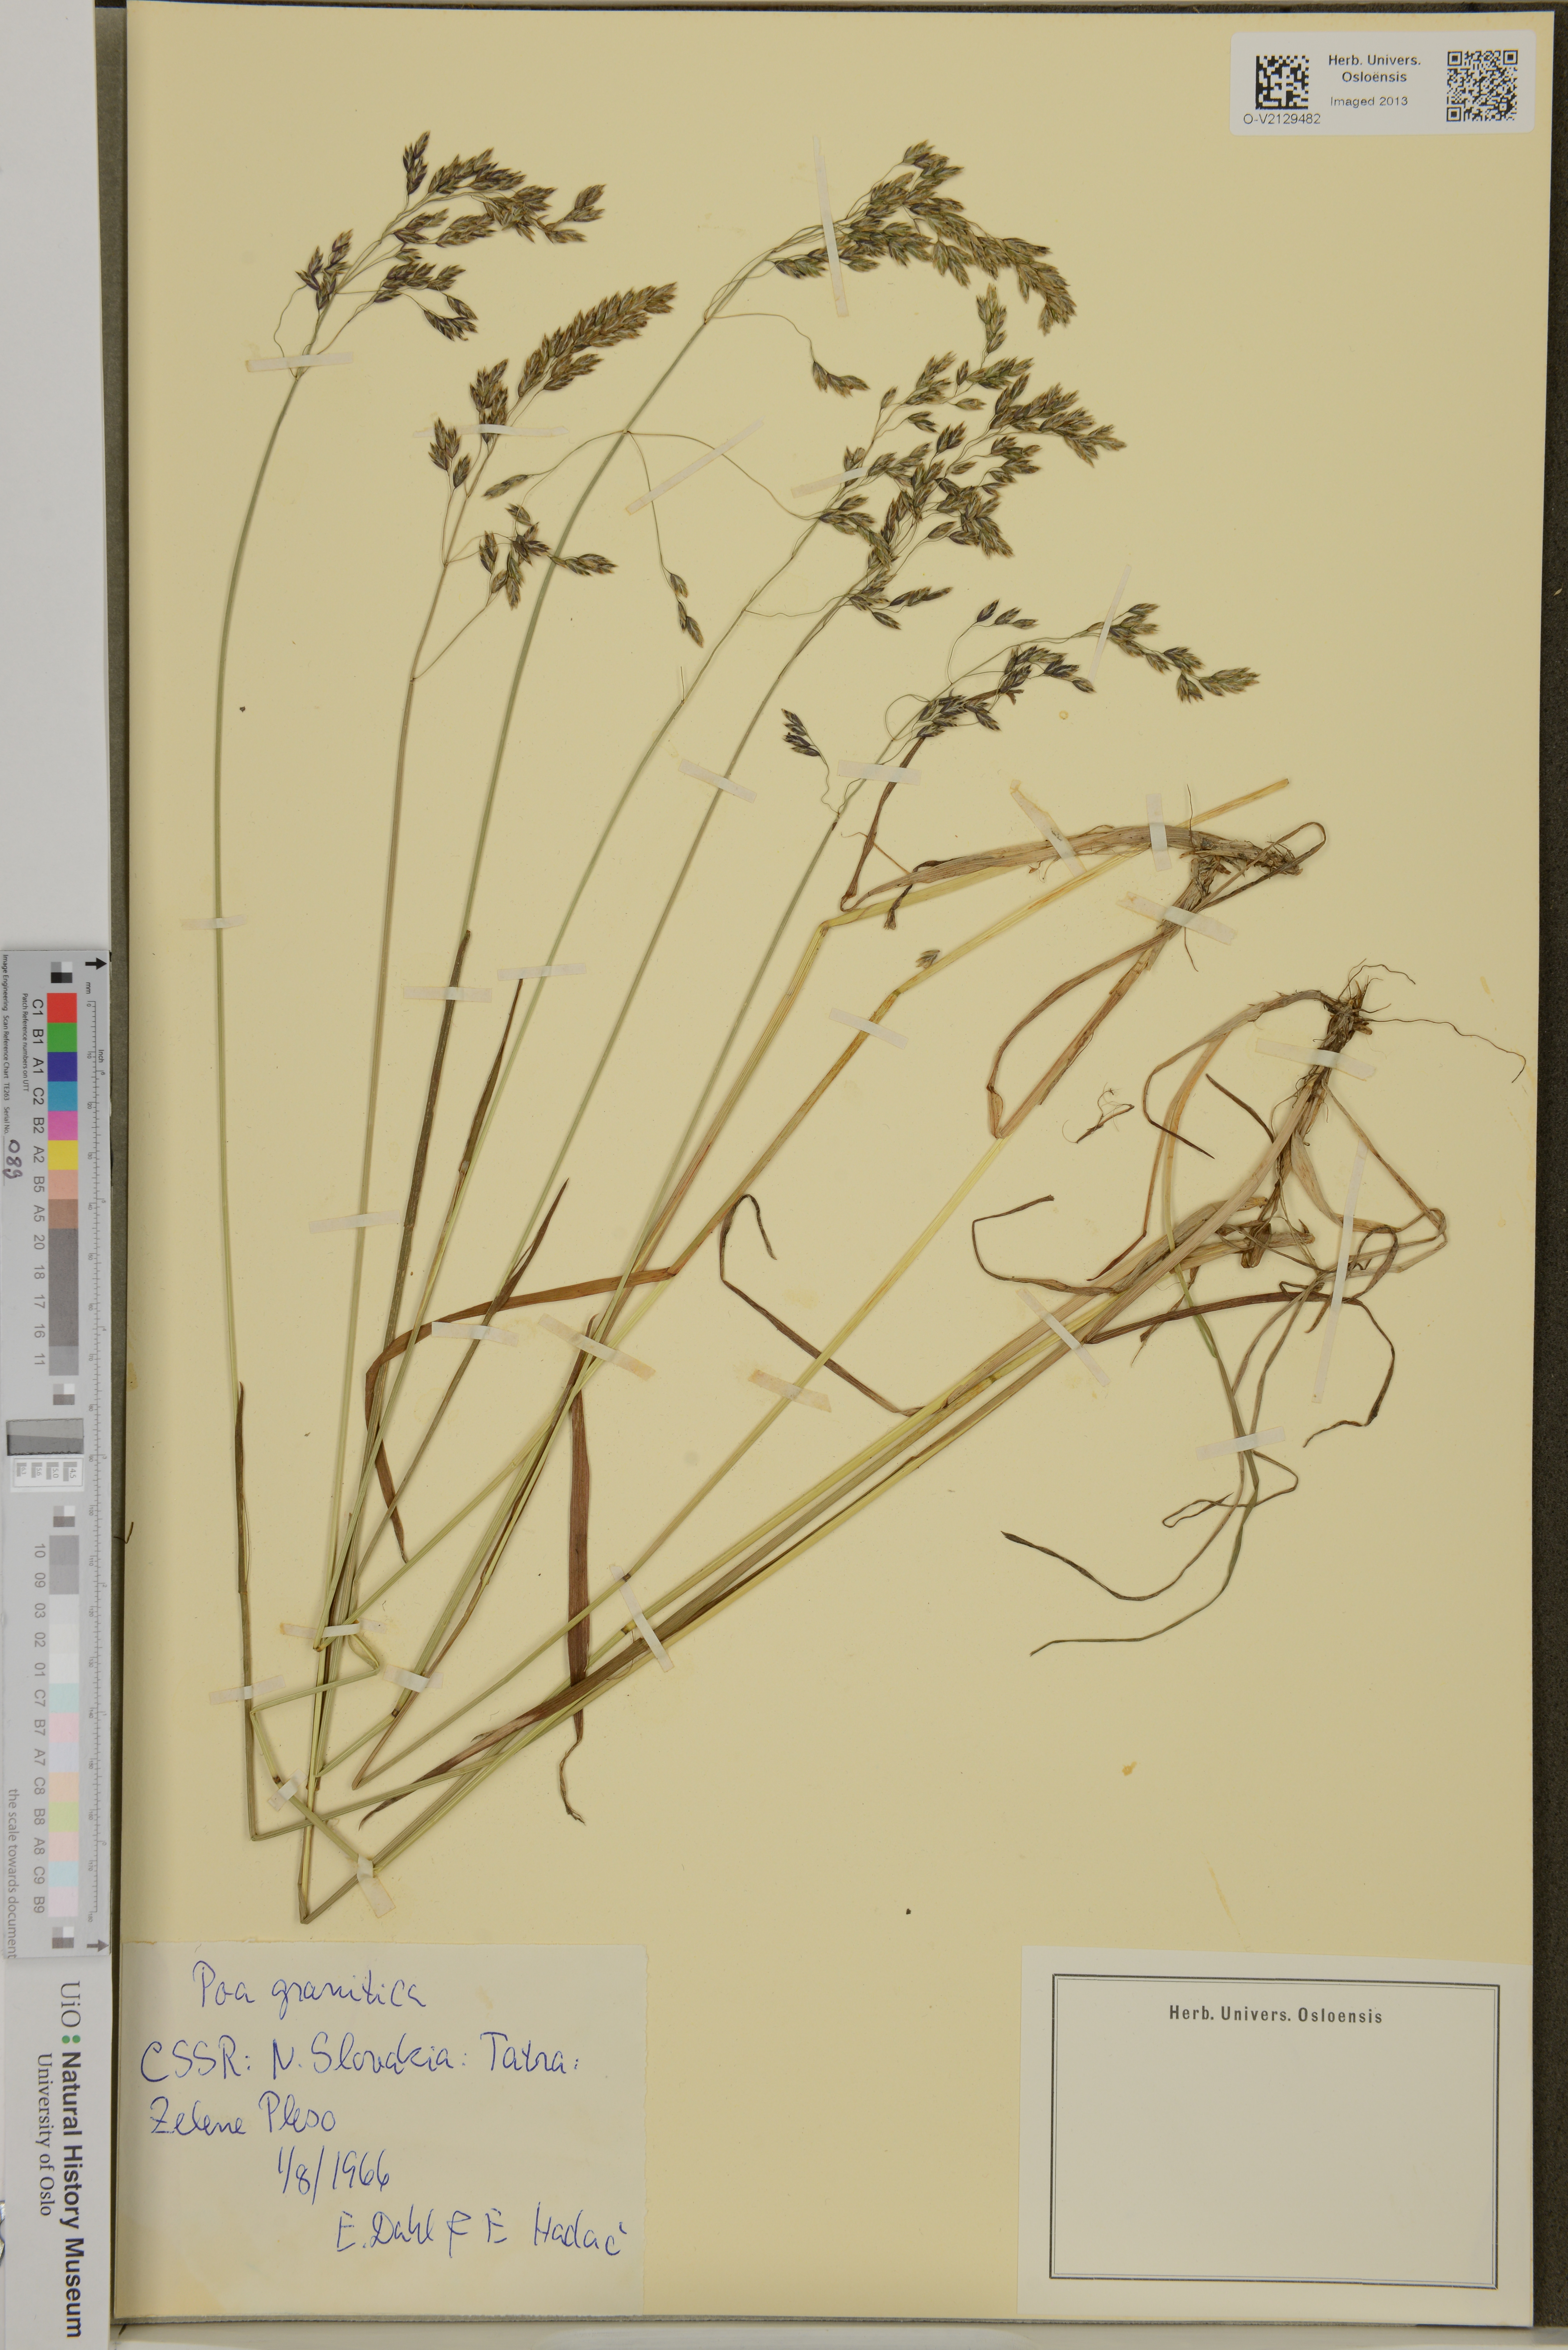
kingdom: Plantae
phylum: Tracheophyta
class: Liliopsida
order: Poales
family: Poaceae
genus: Poa
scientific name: Poa granitica
